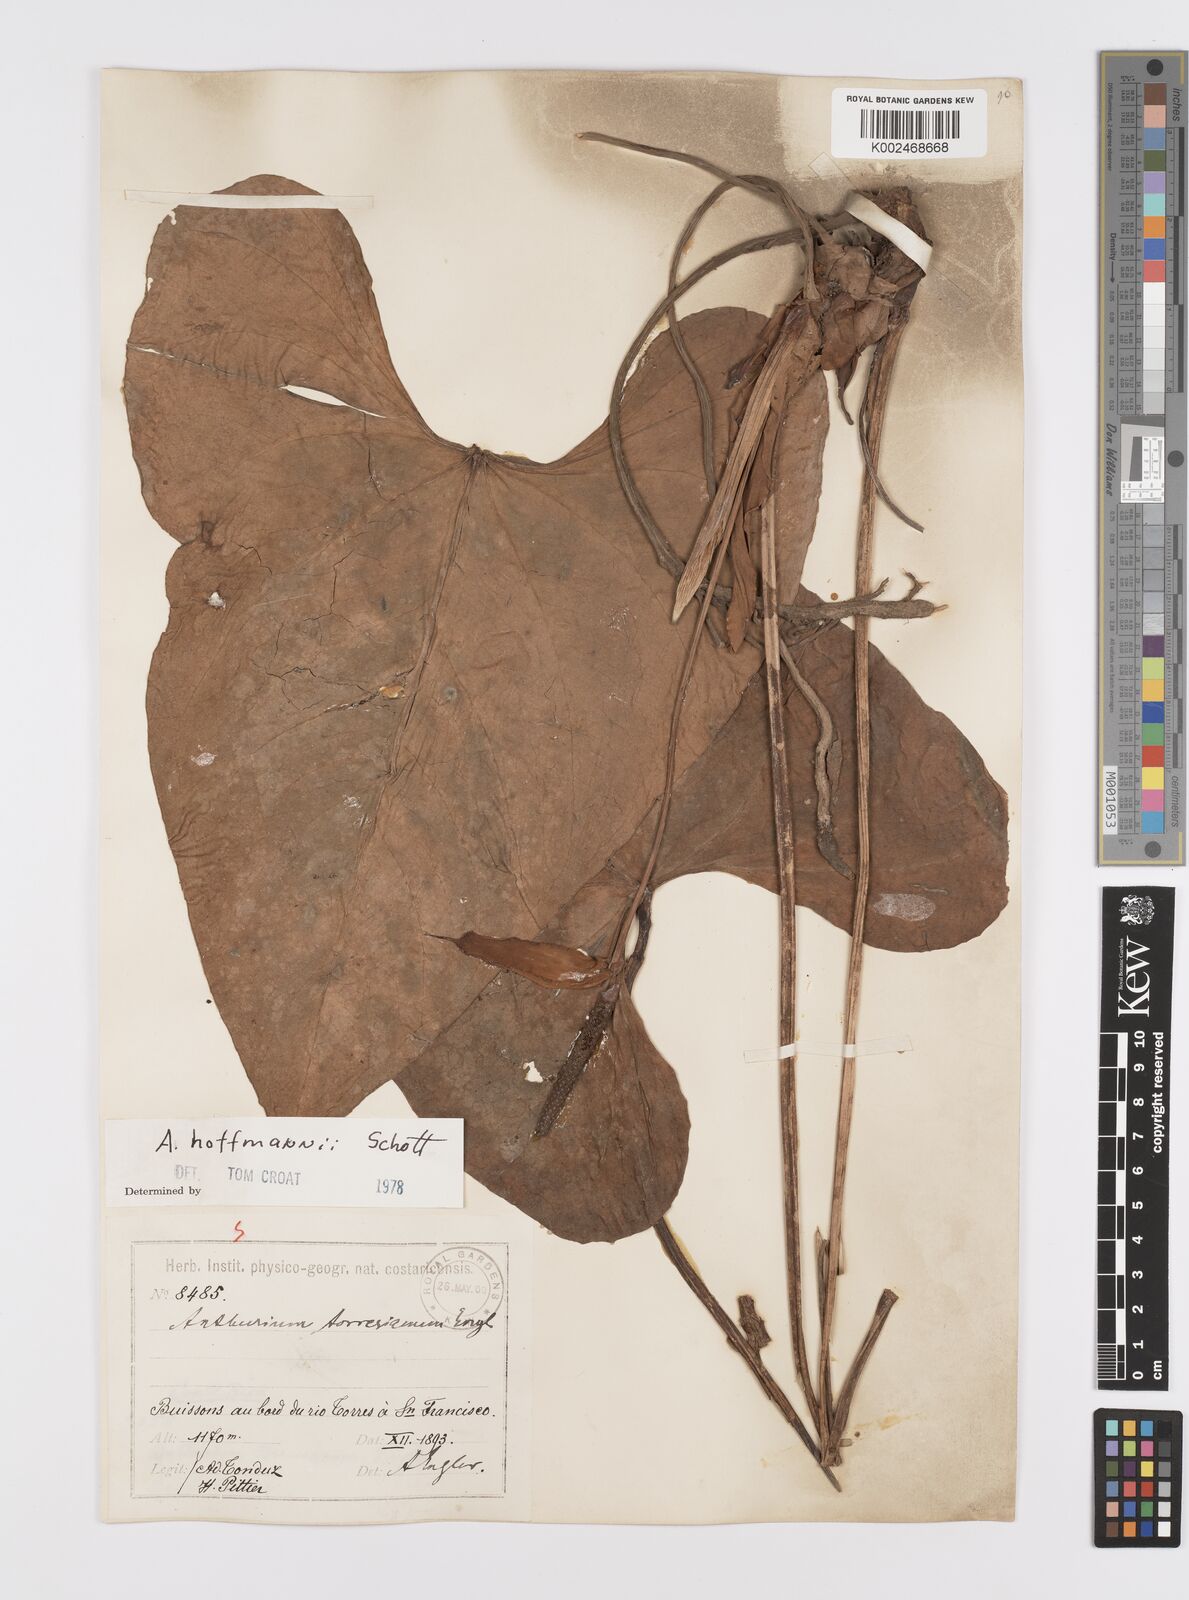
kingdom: Plantae
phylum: Tracheophyta
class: Liliopsida
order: Alismatales
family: Araceae
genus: Anthurium
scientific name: Anthurium hoffmannii
